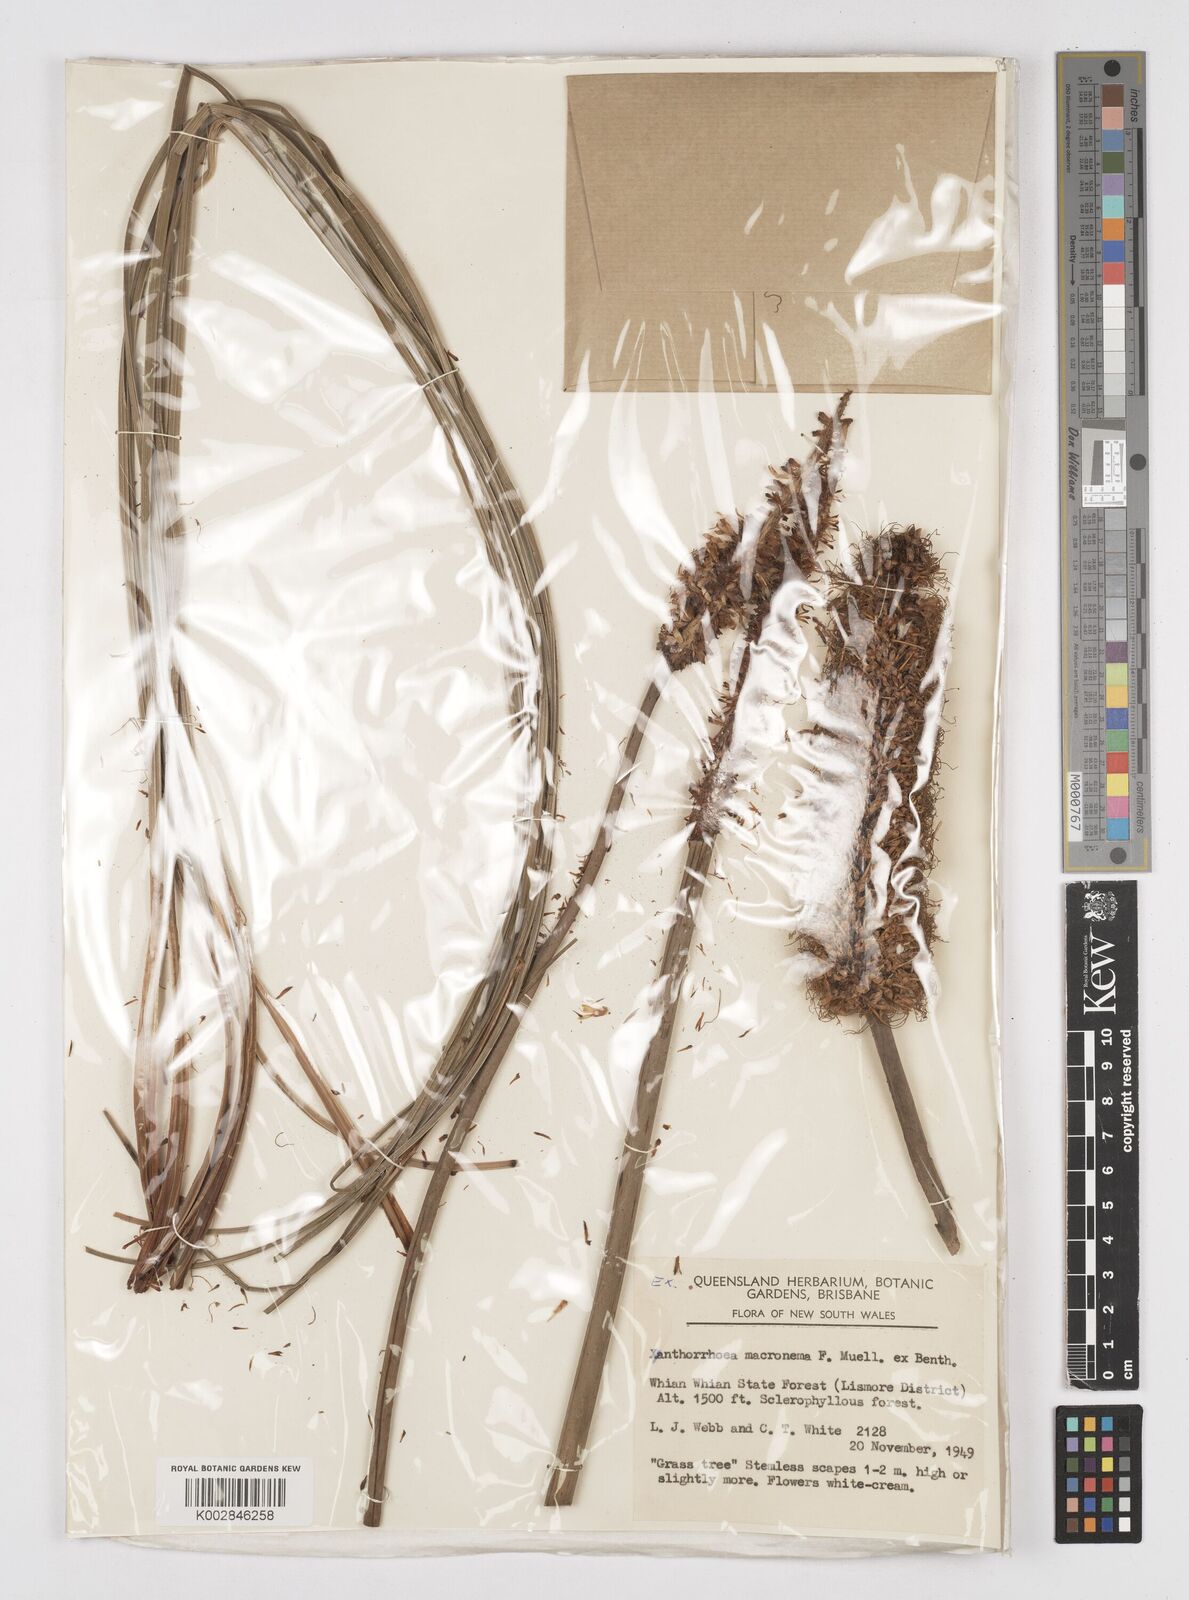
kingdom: Plantae
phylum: Tracheophyta
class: Liliopsida
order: Asparagales
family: Asphodelaceae
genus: Xanthorrhoea
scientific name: Xanthorrhoea macronema
